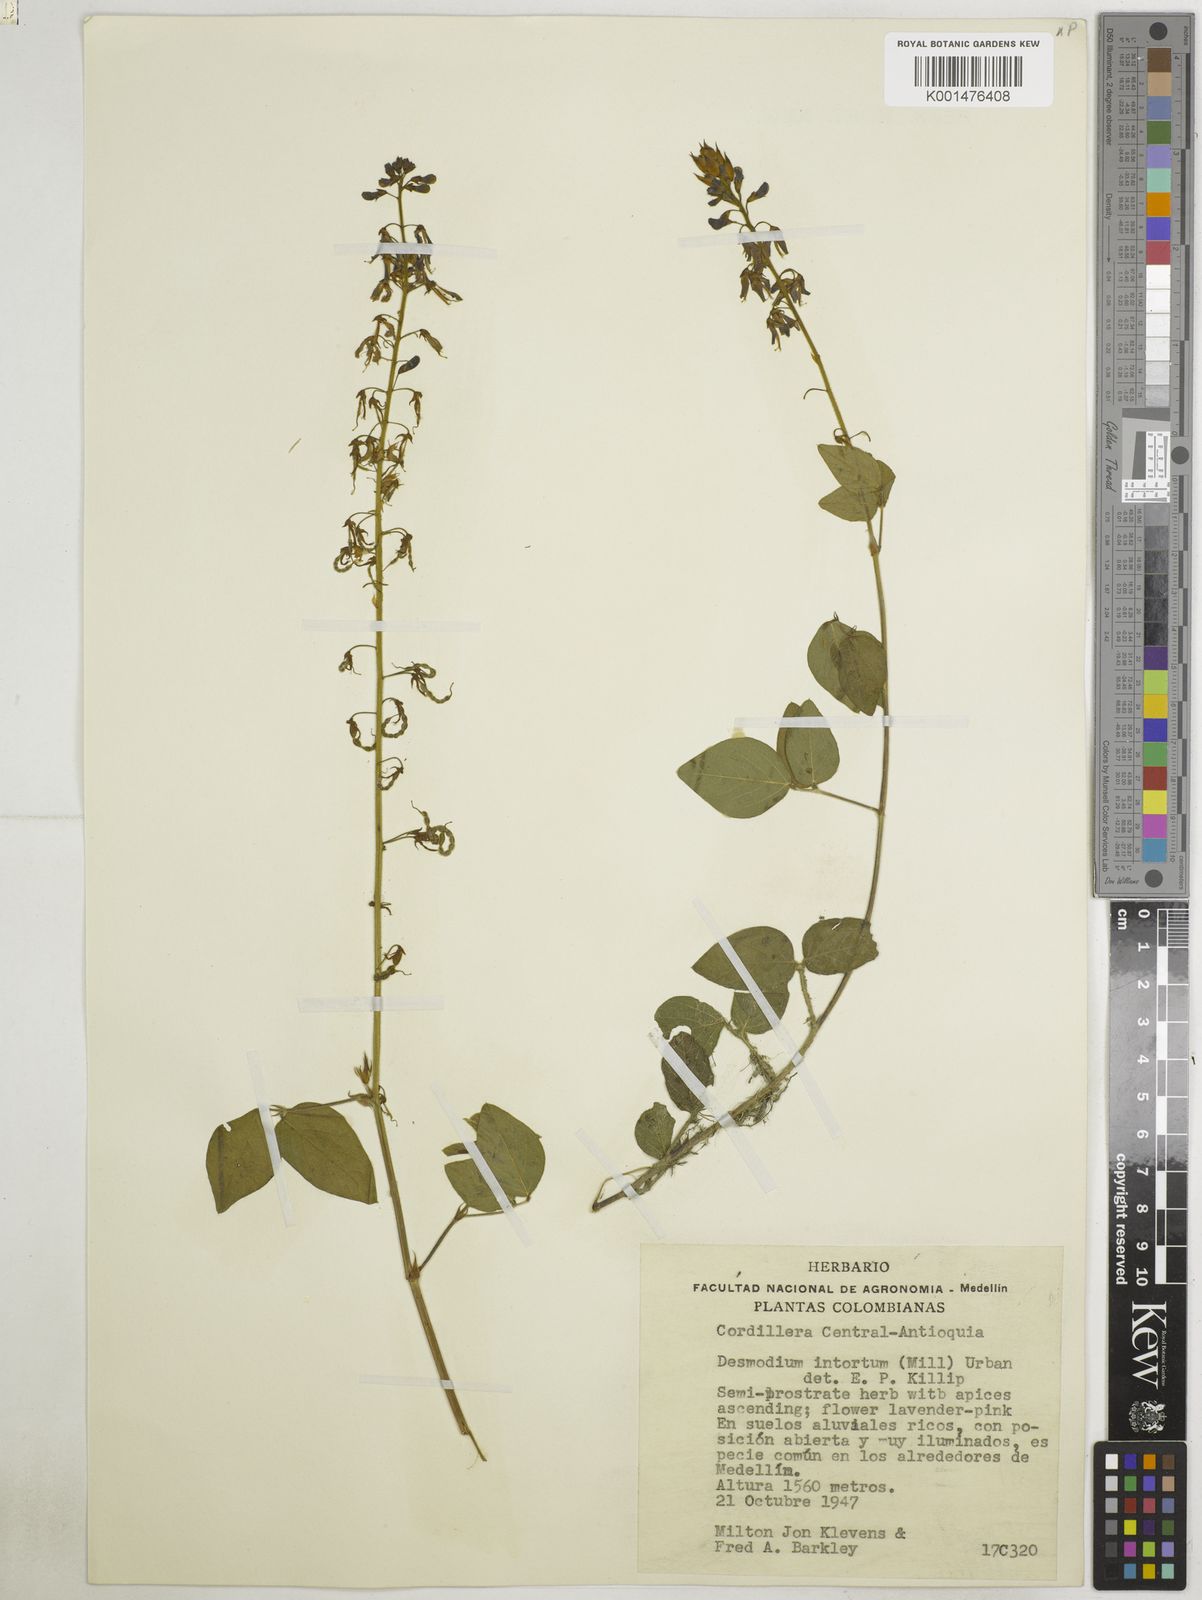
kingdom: Plantae
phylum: Tracheophyta
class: Magnoliopsida
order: Fabales
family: Fabaceae
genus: Desmodium
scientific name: Desmodium intortum
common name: Greenleaf ticktrefoil
